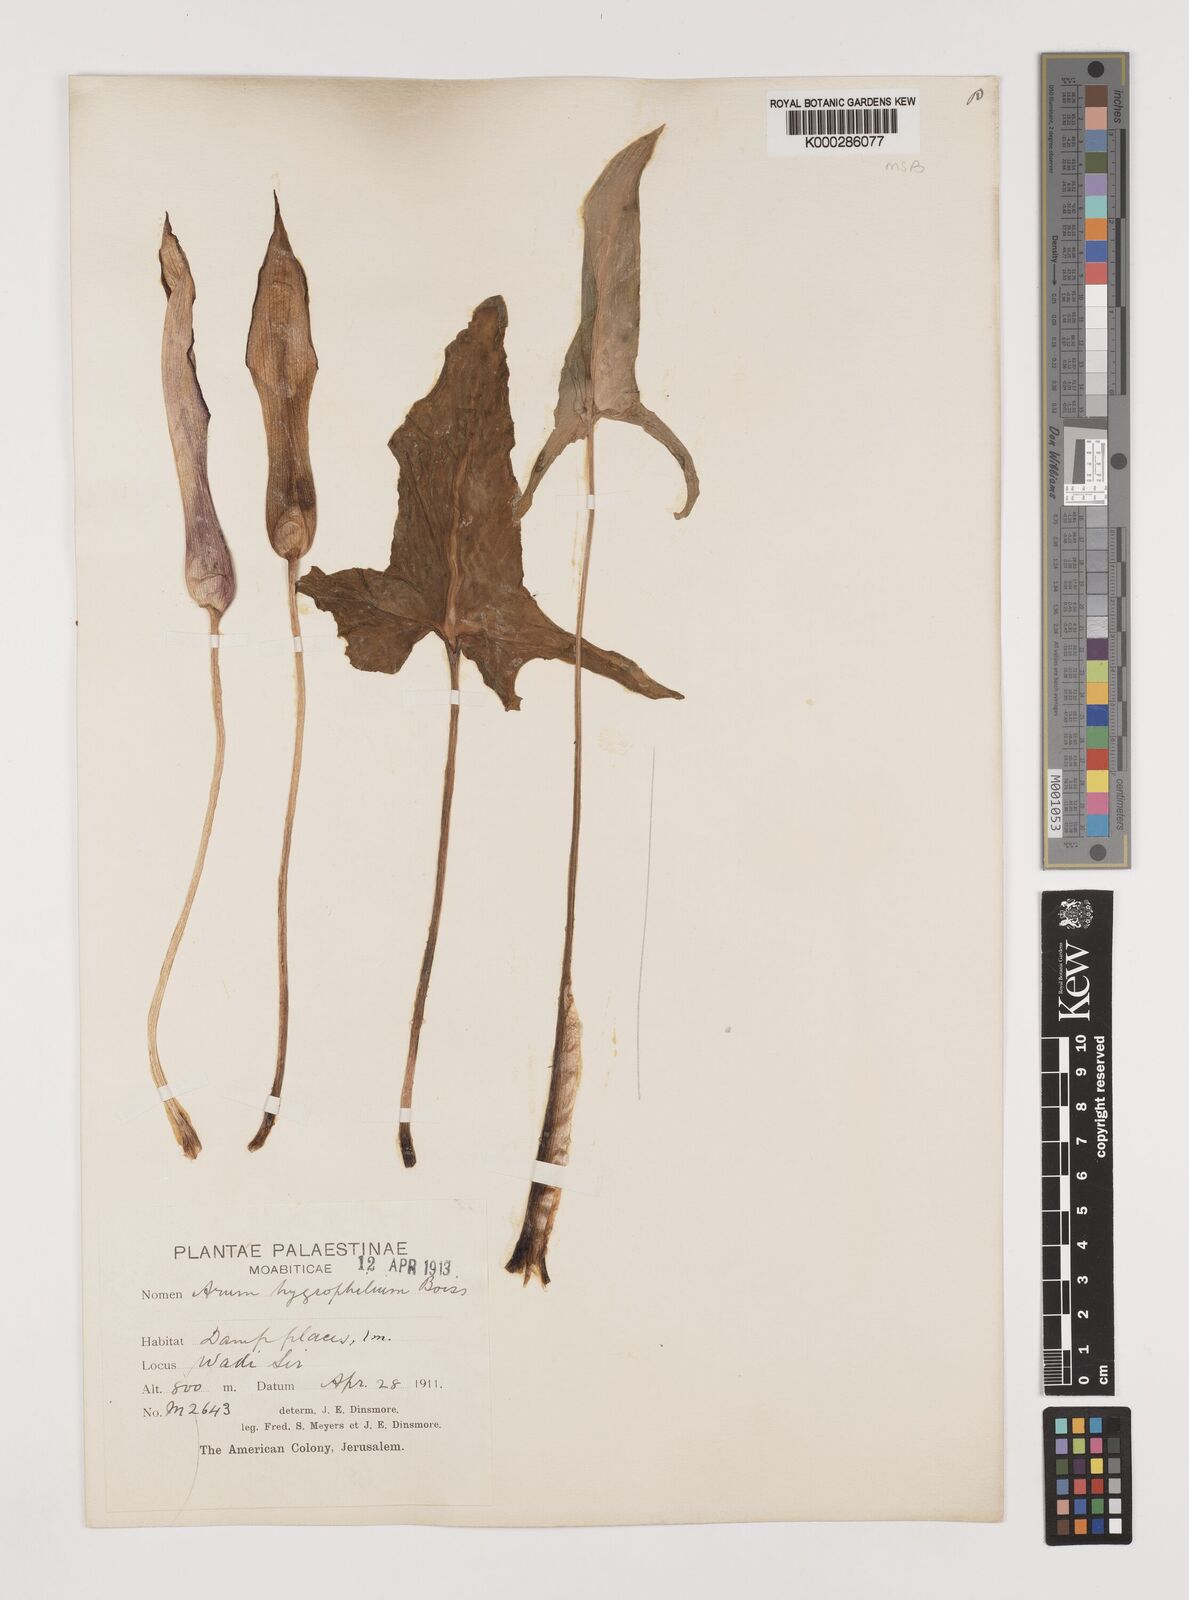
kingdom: Plantae
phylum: Tracheophyta
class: Liliopsida
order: Alismatales
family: Araceae
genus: Arum
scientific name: Arum hygrophilum
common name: Water arum
